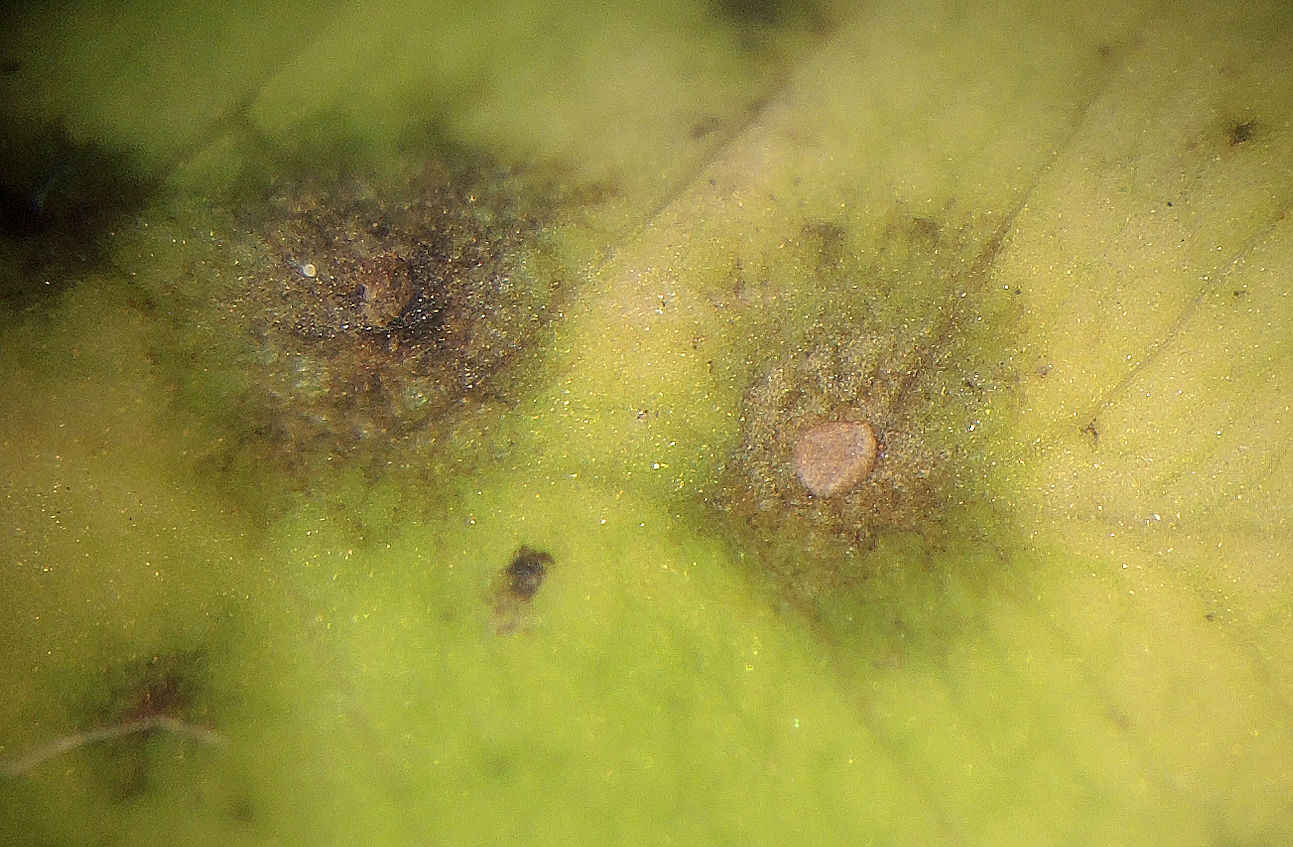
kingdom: Fungi
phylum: Ascomycota
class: Leotiomycetes
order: Helotiales
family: Drepanopezizaceae
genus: Pseudopeziza
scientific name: Pseudopeziza trifolii
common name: kløver-bladskive
